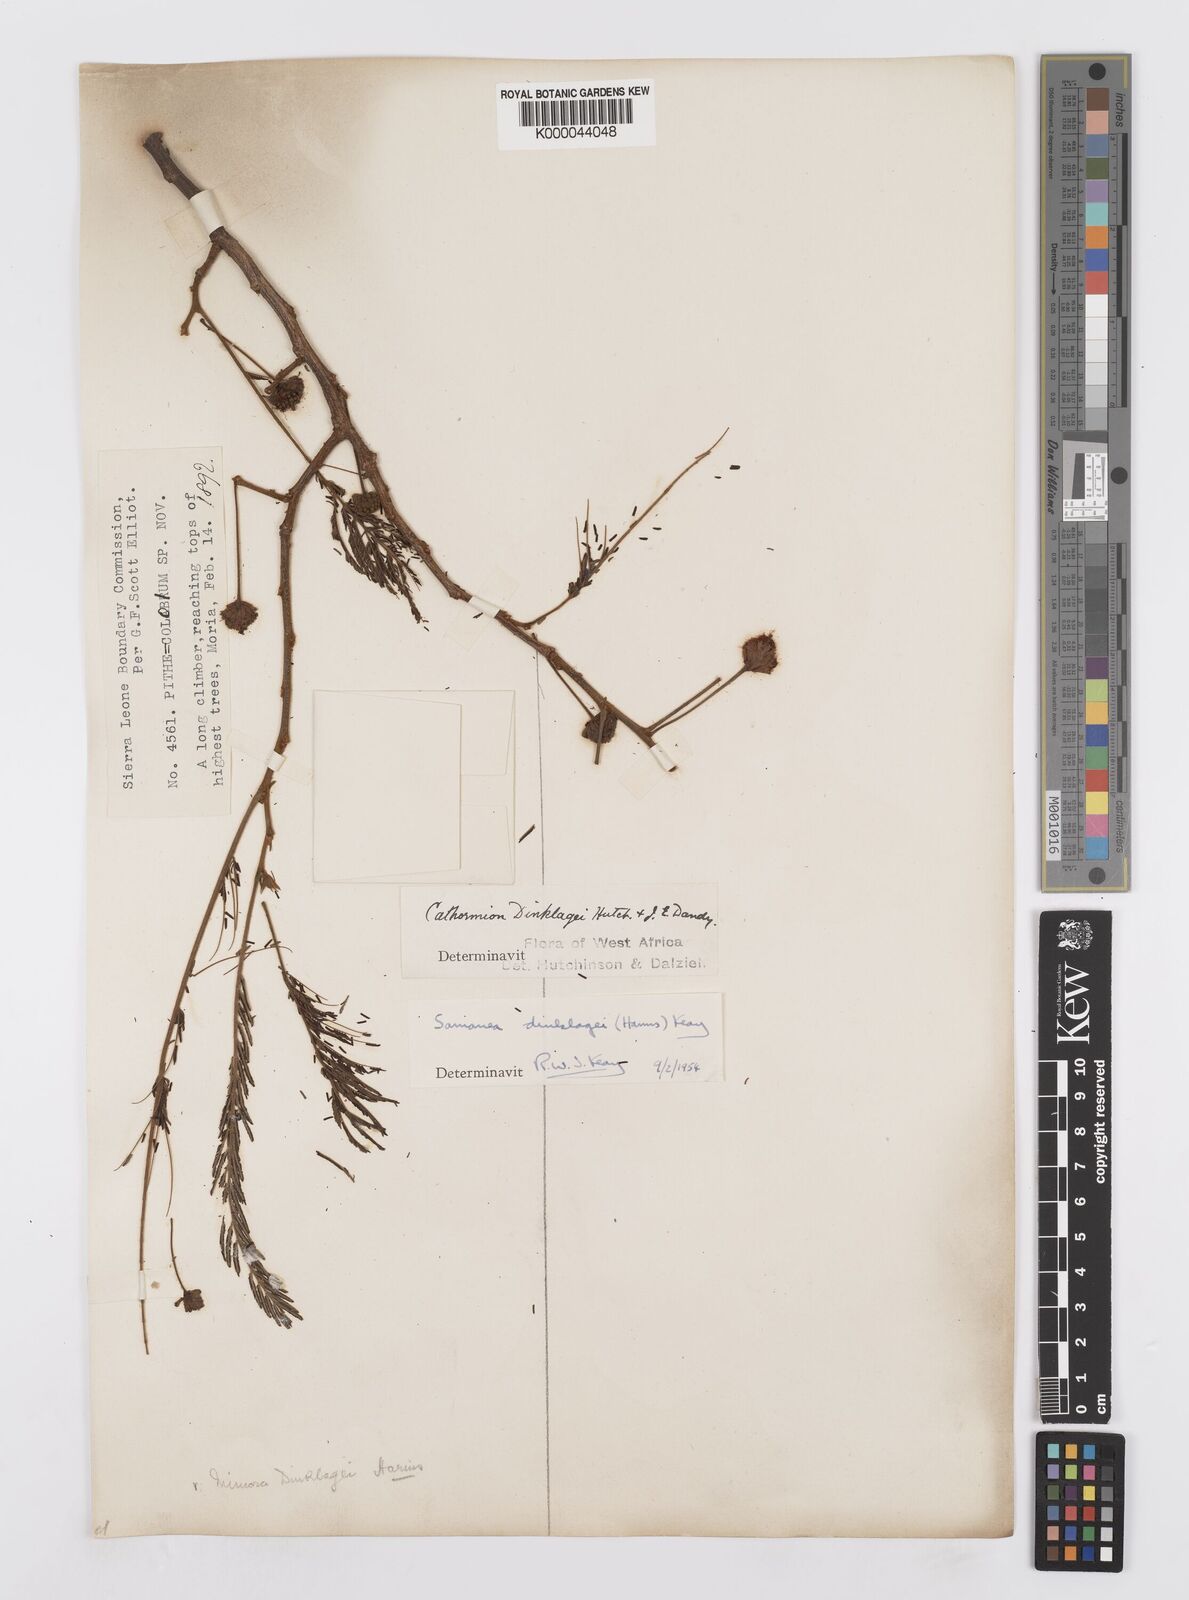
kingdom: Plantae
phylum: Tracheophyta
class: Magnoliopsida
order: Fabales
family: Fabaceae
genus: Albizia
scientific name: Albizia dinklagei
